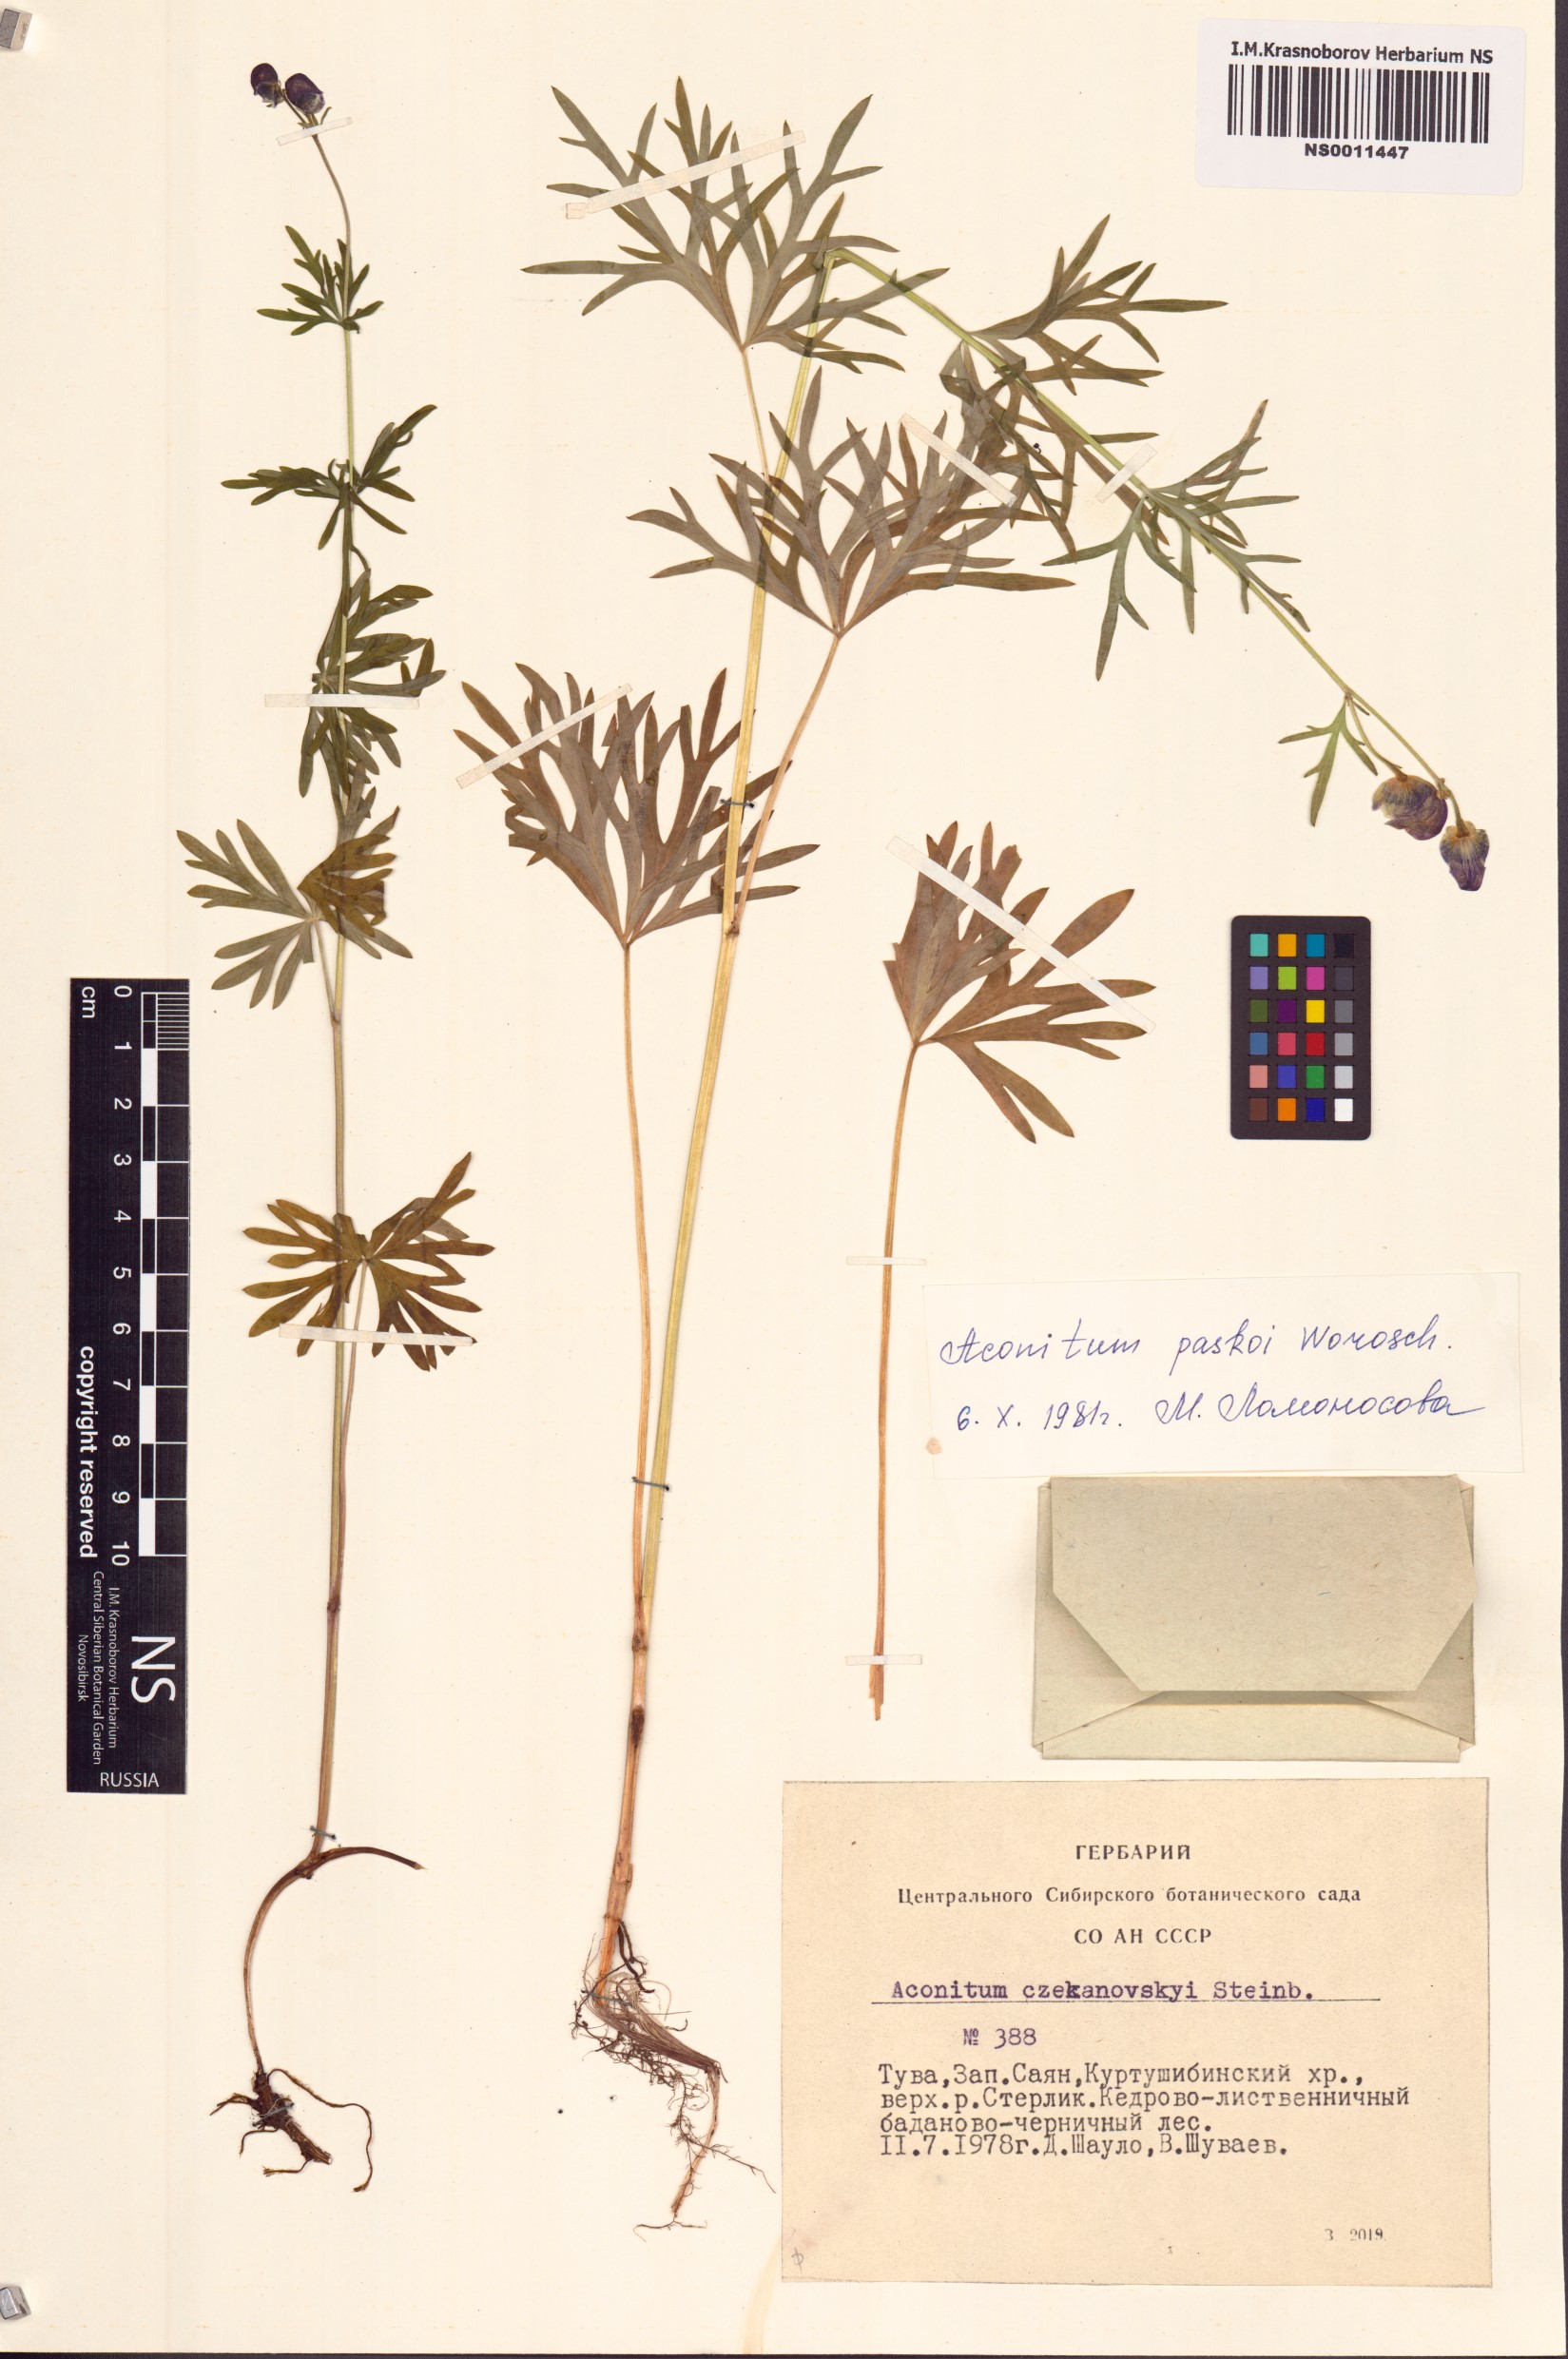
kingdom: Plantae
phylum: Tracheophyta
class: Magnoliopsida
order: Ranunculales
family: Ranunculaceae
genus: Aconitum
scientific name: Aconitum pascoi
